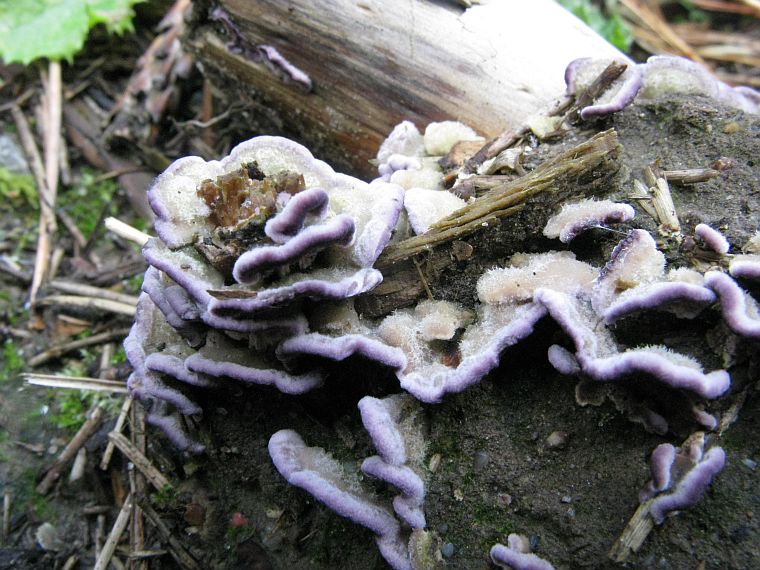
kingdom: Fungi
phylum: Basidiomycota
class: Agaricomycetes
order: Hymenochaetales
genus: Trichaptum
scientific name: Trichaptum abietinum
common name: almindelig violporesvamp
